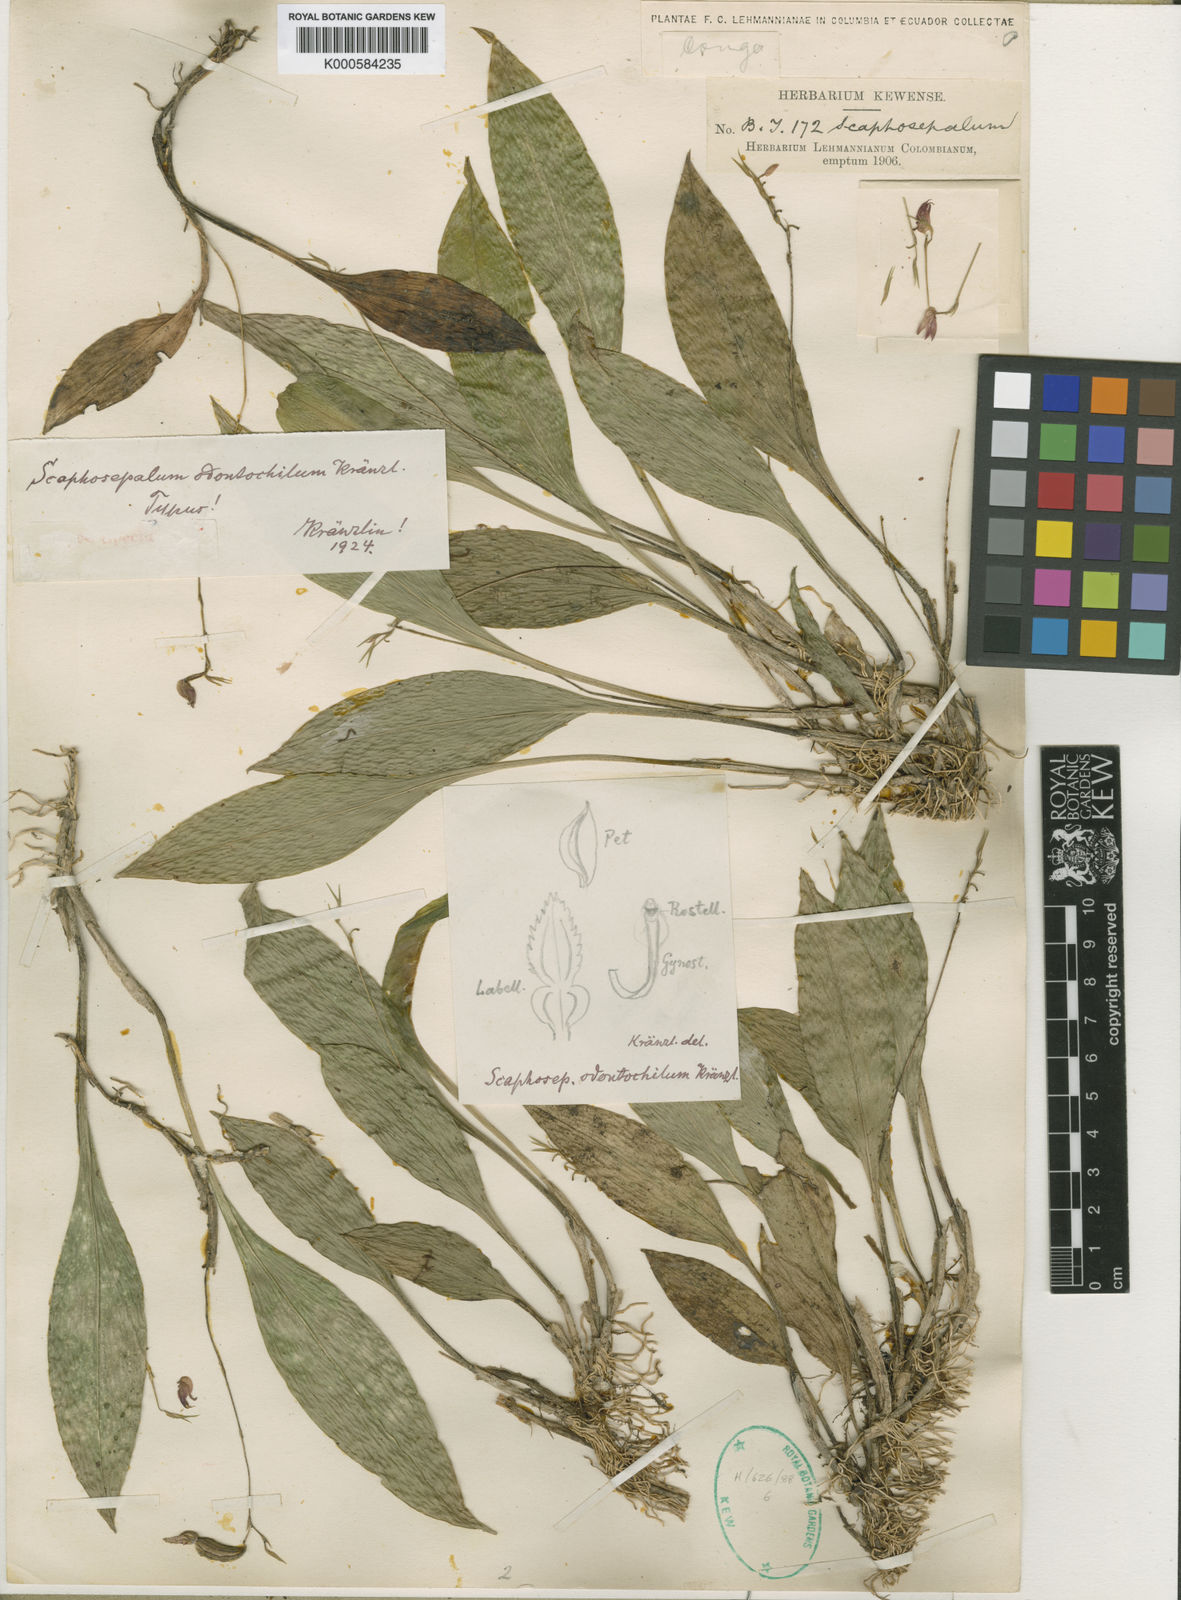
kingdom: Plantae
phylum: Tracheophyta
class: Liliopsida
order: Asparagales
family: Orchidaceae
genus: Scaphosepalum
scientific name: Scaphosepalum odontochilum
